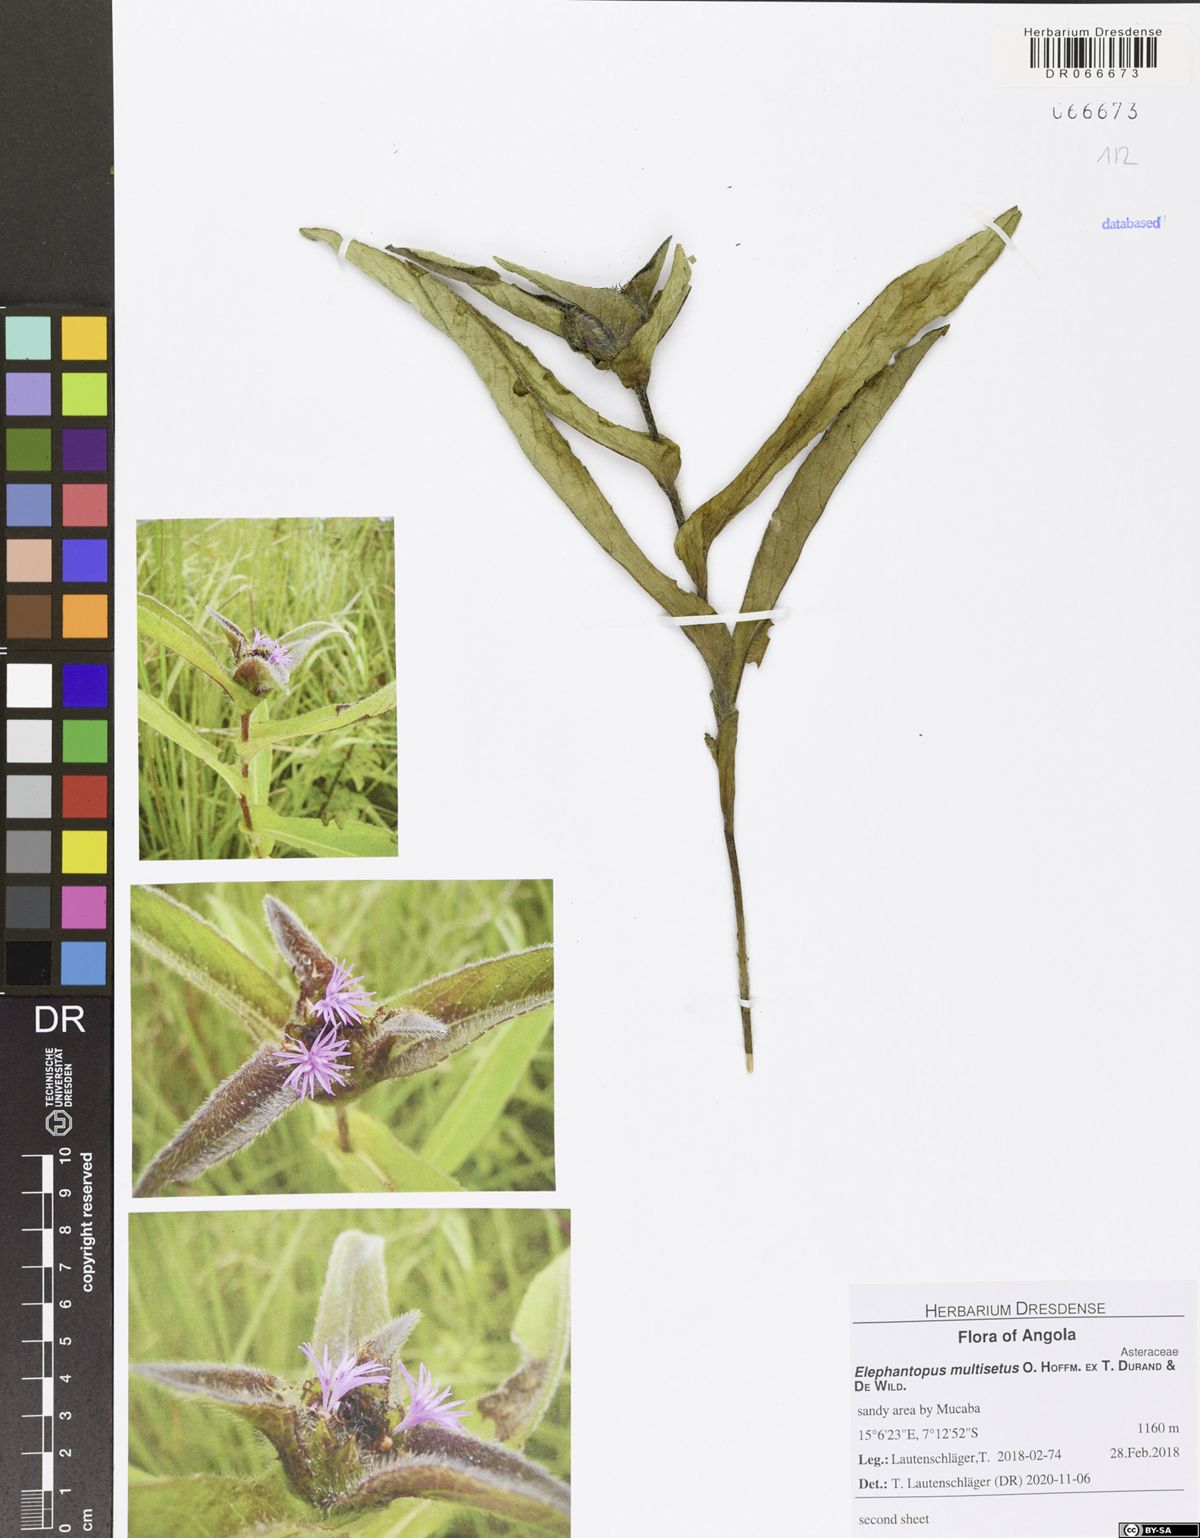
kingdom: Plantae
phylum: Tracheophyta
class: Magnoliopsida
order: Asterales
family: Asteraceae
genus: Elephantopus
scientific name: Elephantopus multisetus
